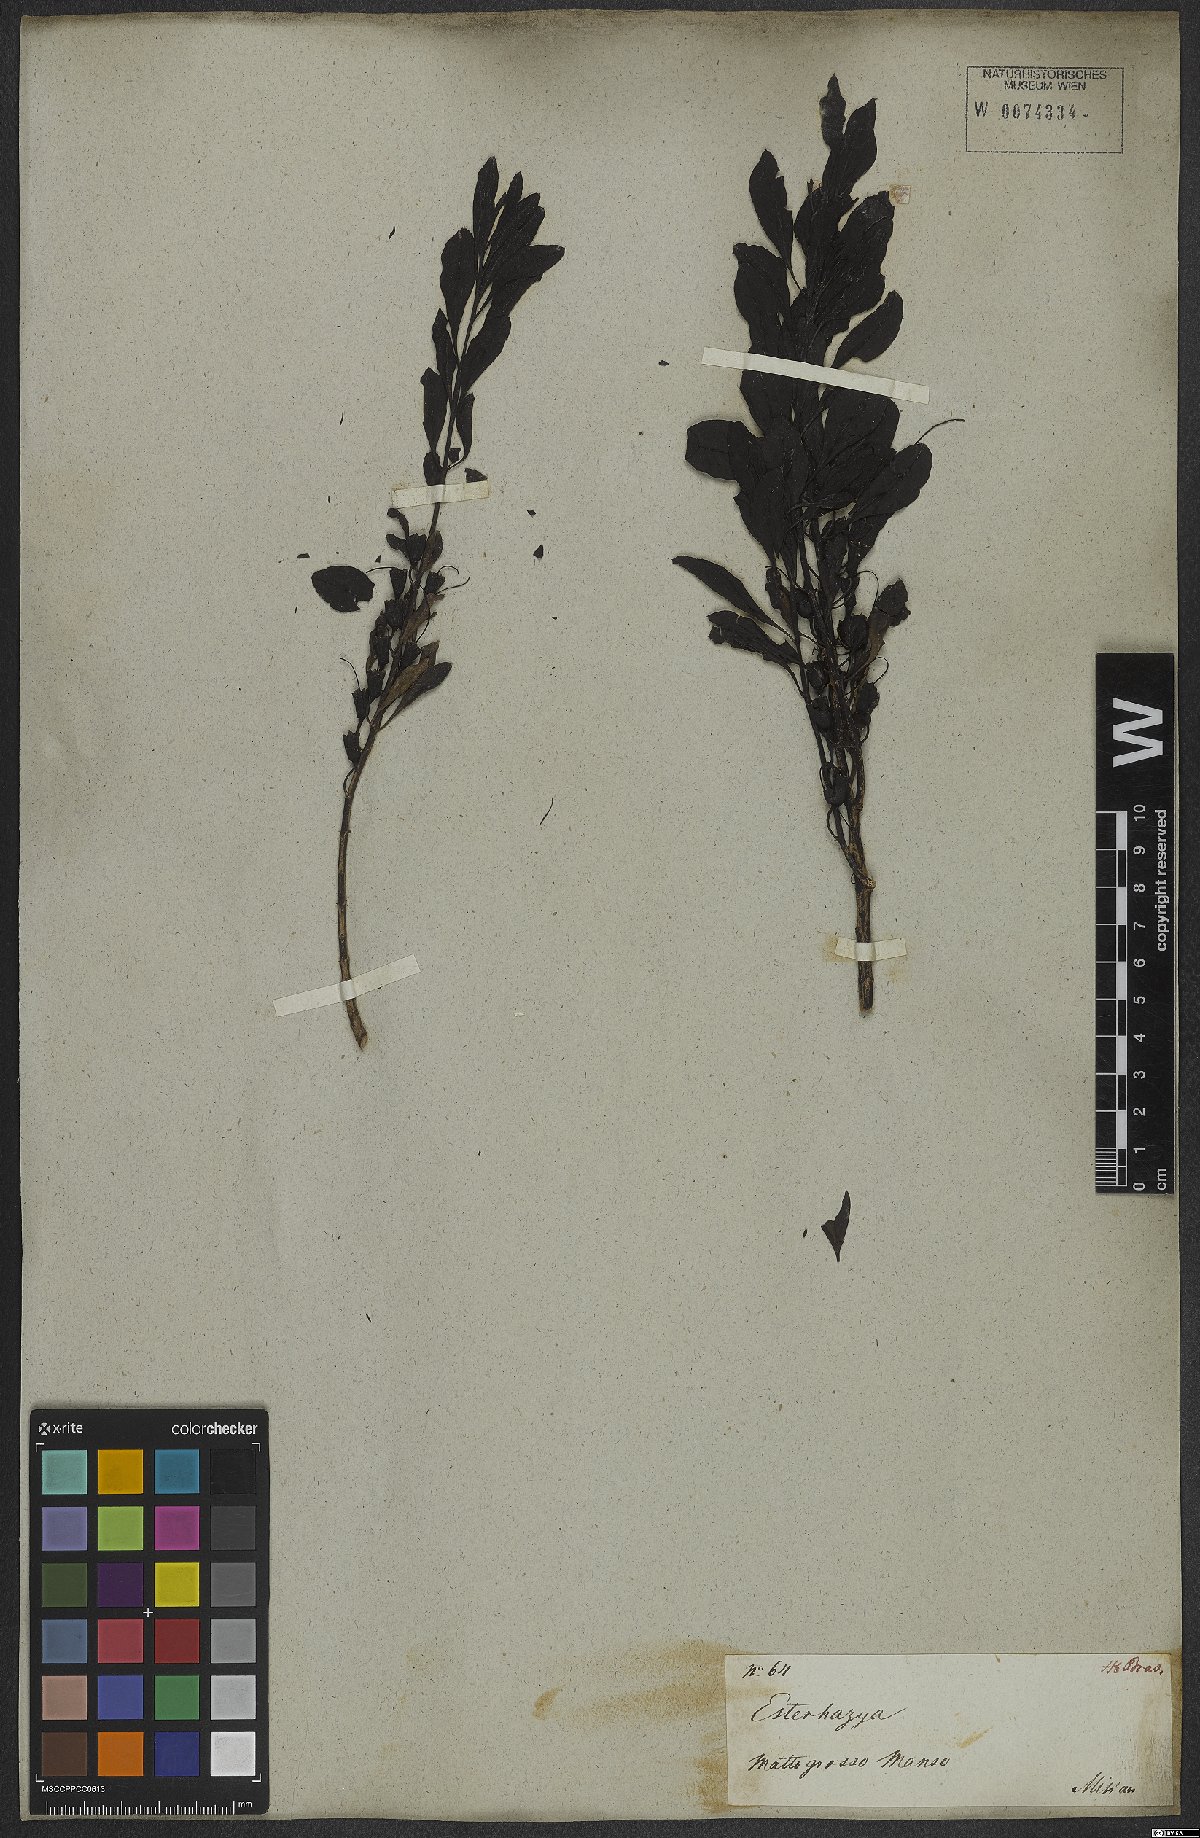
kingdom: Plantae
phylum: Tracheophyta
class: Magnoliopsida
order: Lamiales
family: Scrophulariaceae
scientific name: Scrophulariaceae
